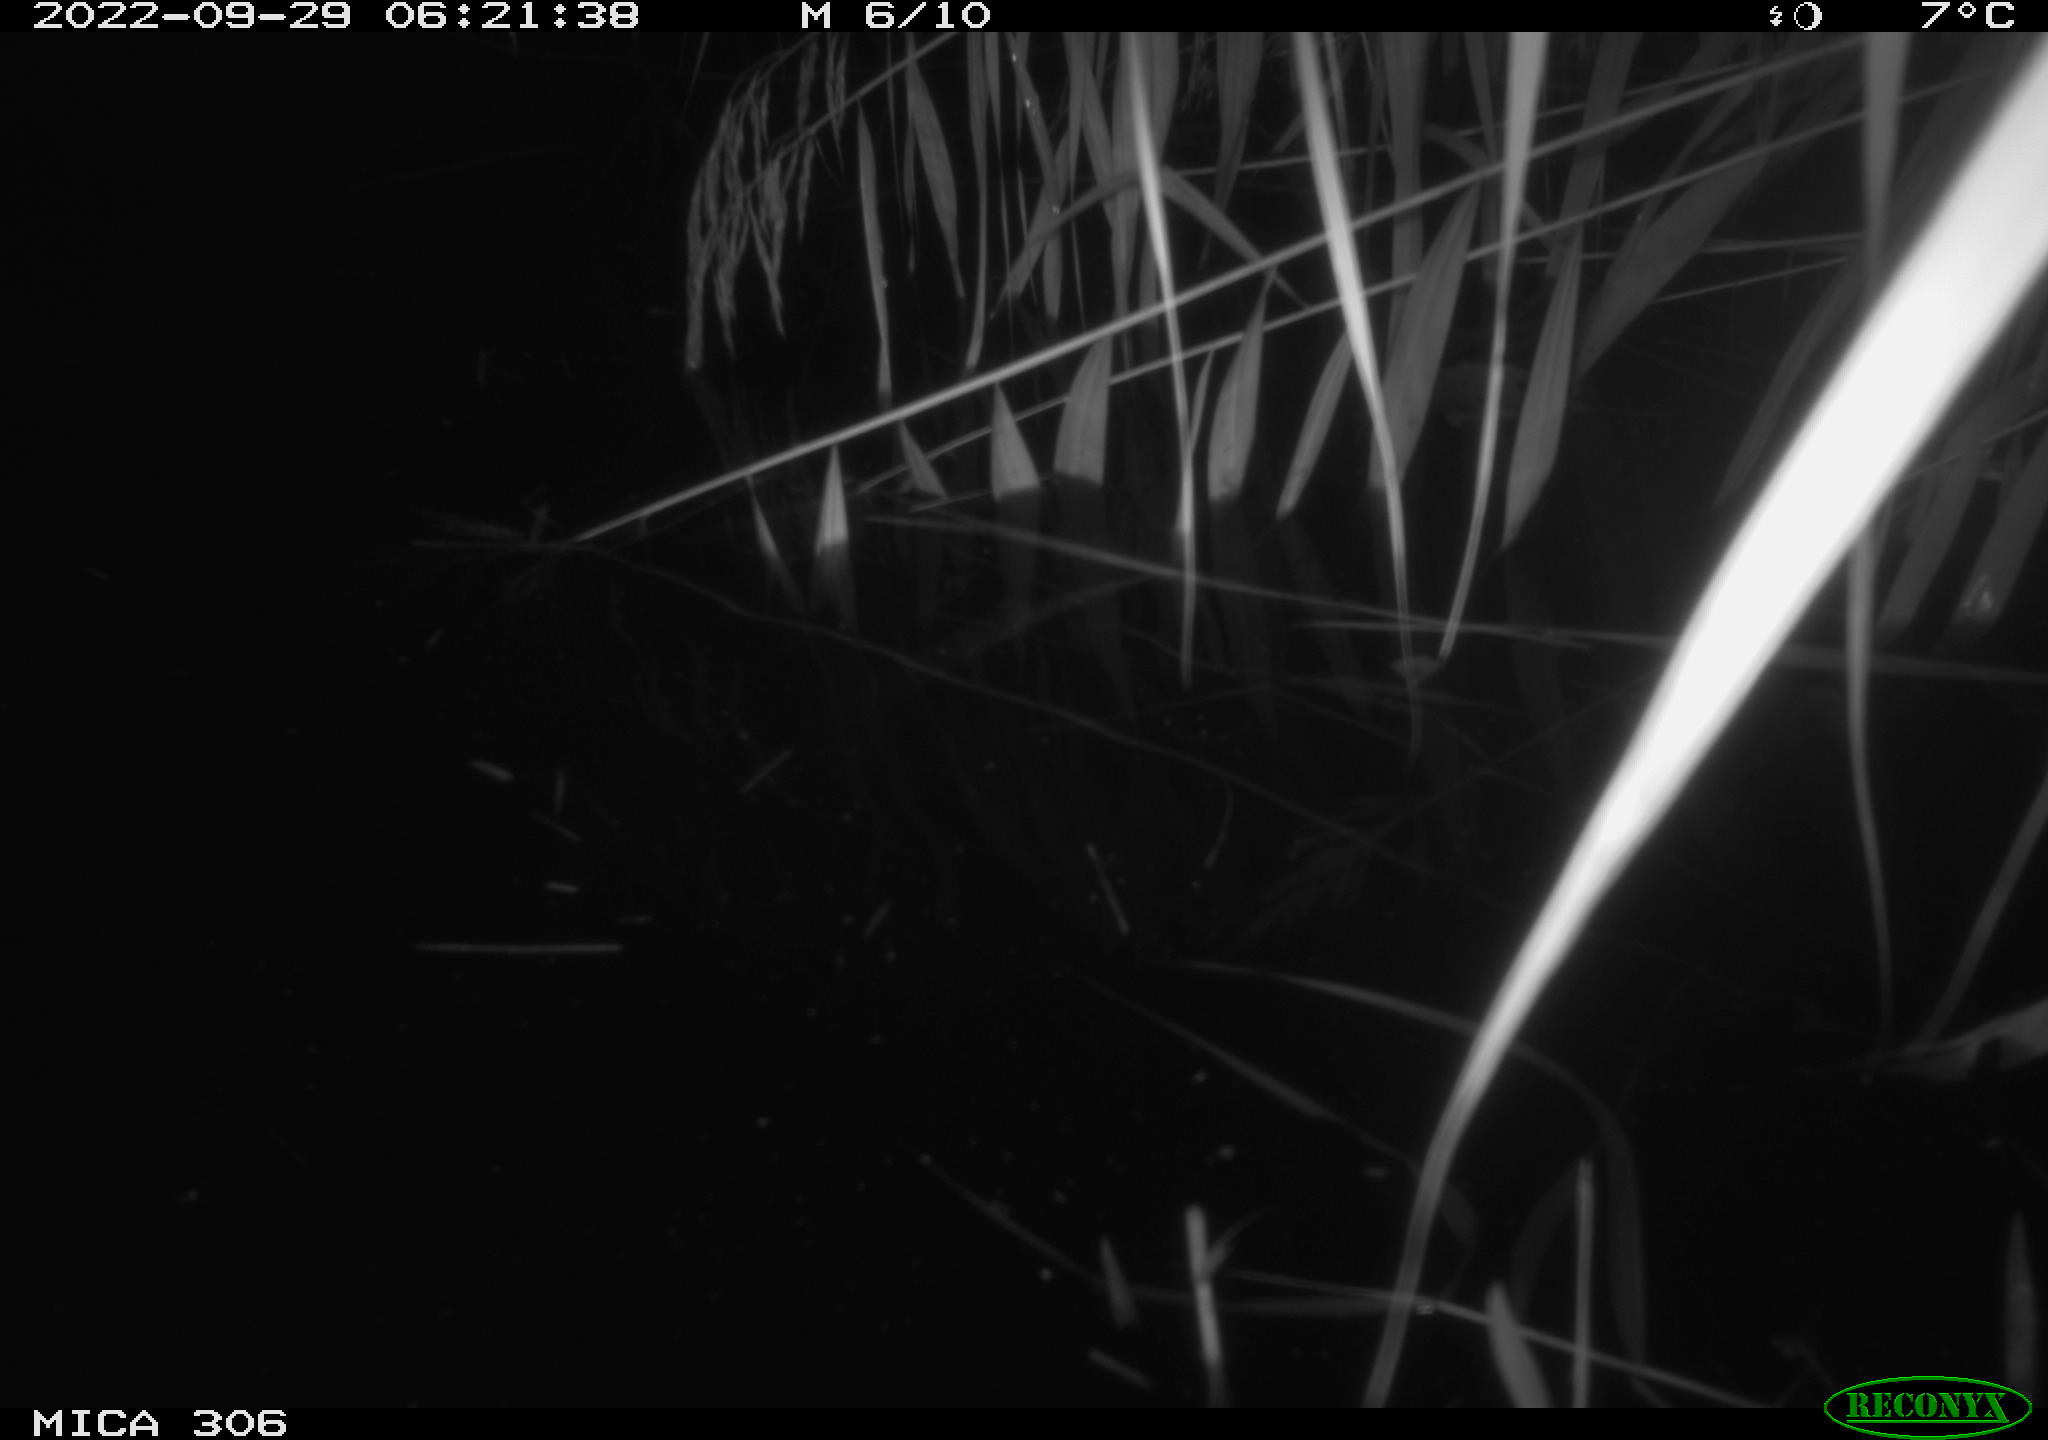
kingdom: Animalia
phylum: Chordata
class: Mammalia
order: Rodentia
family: Muridae
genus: Rattus
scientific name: Rattus norvegicus
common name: Brown rat
